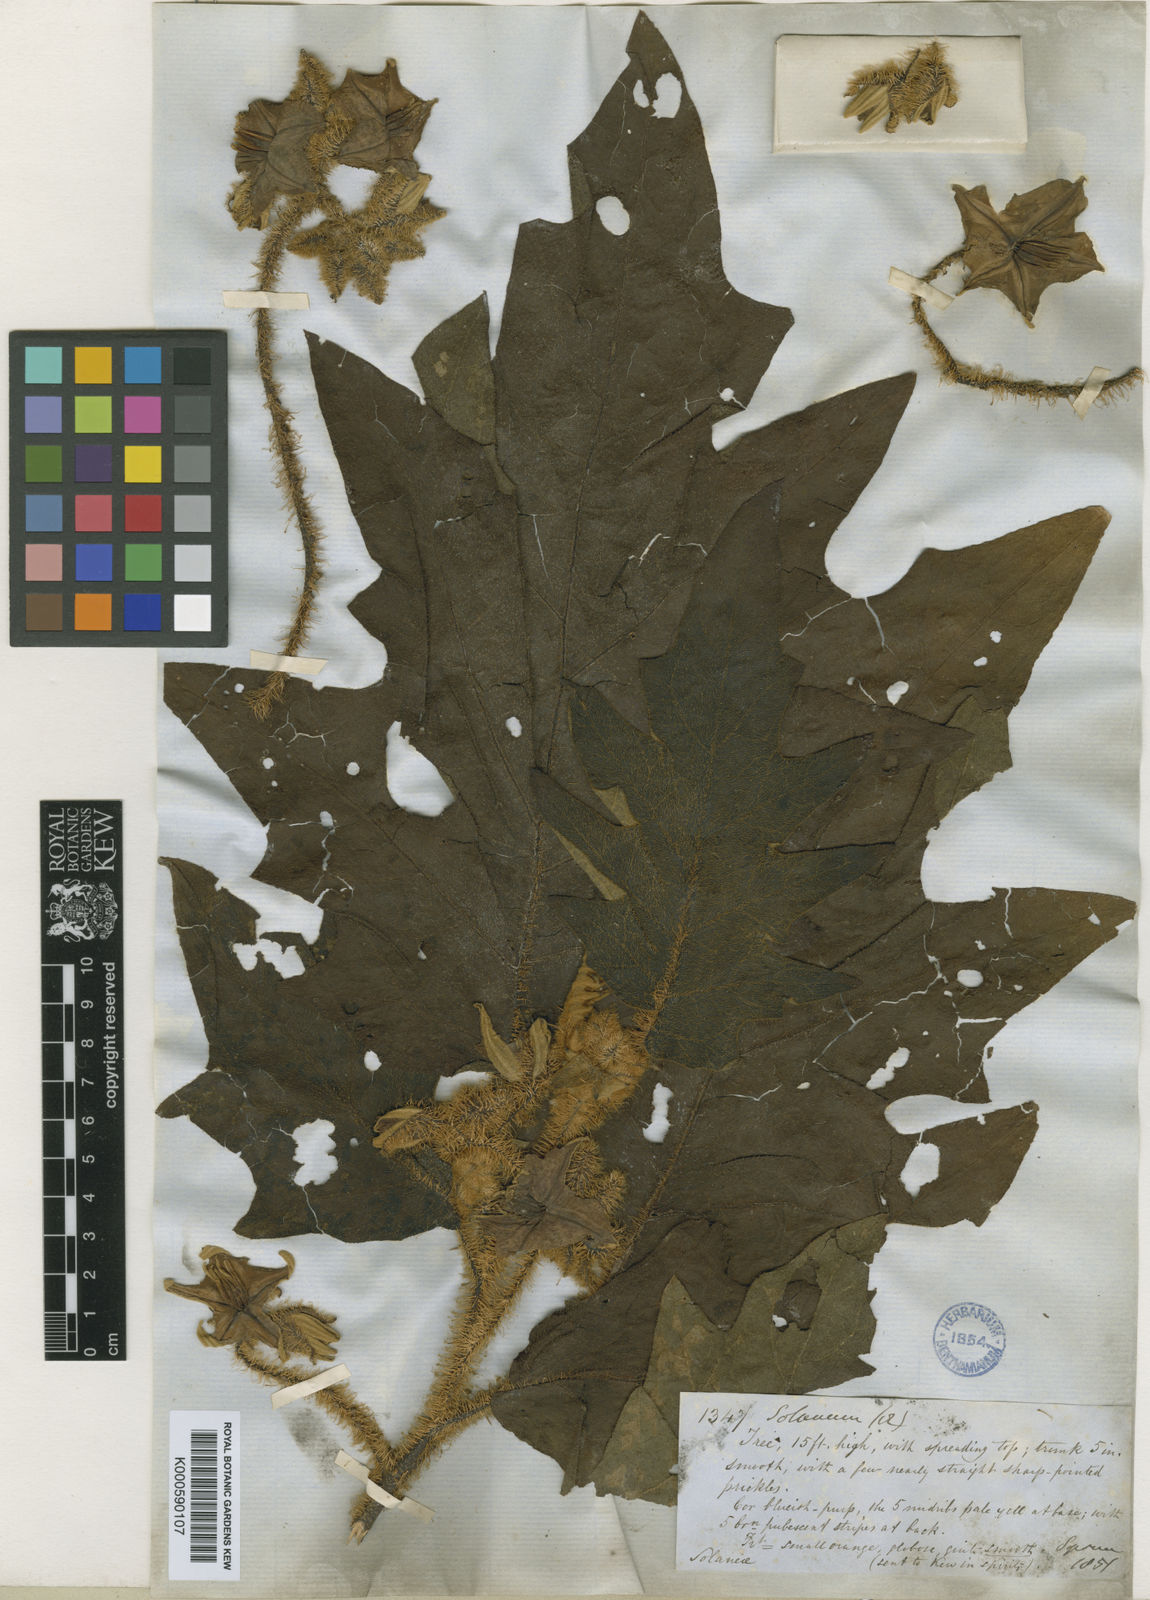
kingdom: Plantae
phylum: Tracheophyta
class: Magnoliopsida
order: Solanales
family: Solanaceae
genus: Solanum
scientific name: Solanum
